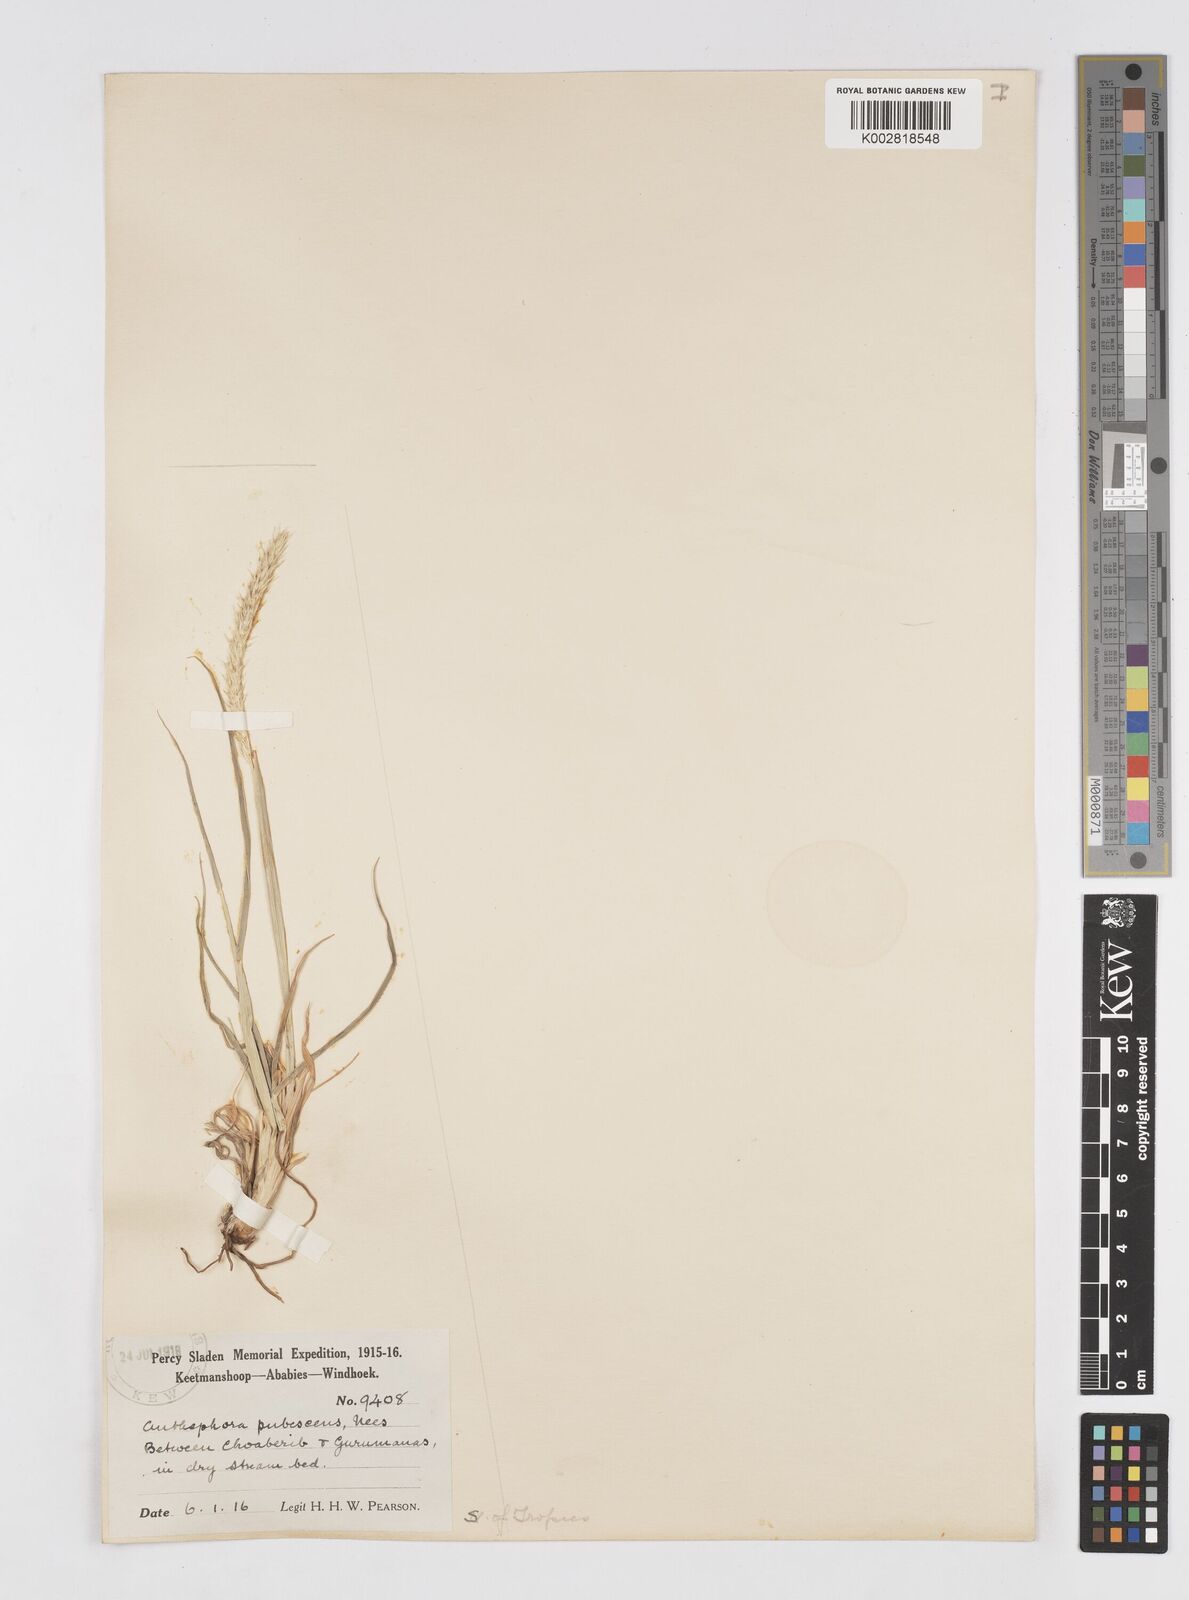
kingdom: Plantae
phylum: Tracheophyta
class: Liliopsida
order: Poales
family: Poaceae
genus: Anthephora
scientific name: Anthephora pubescens
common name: Wool grass
